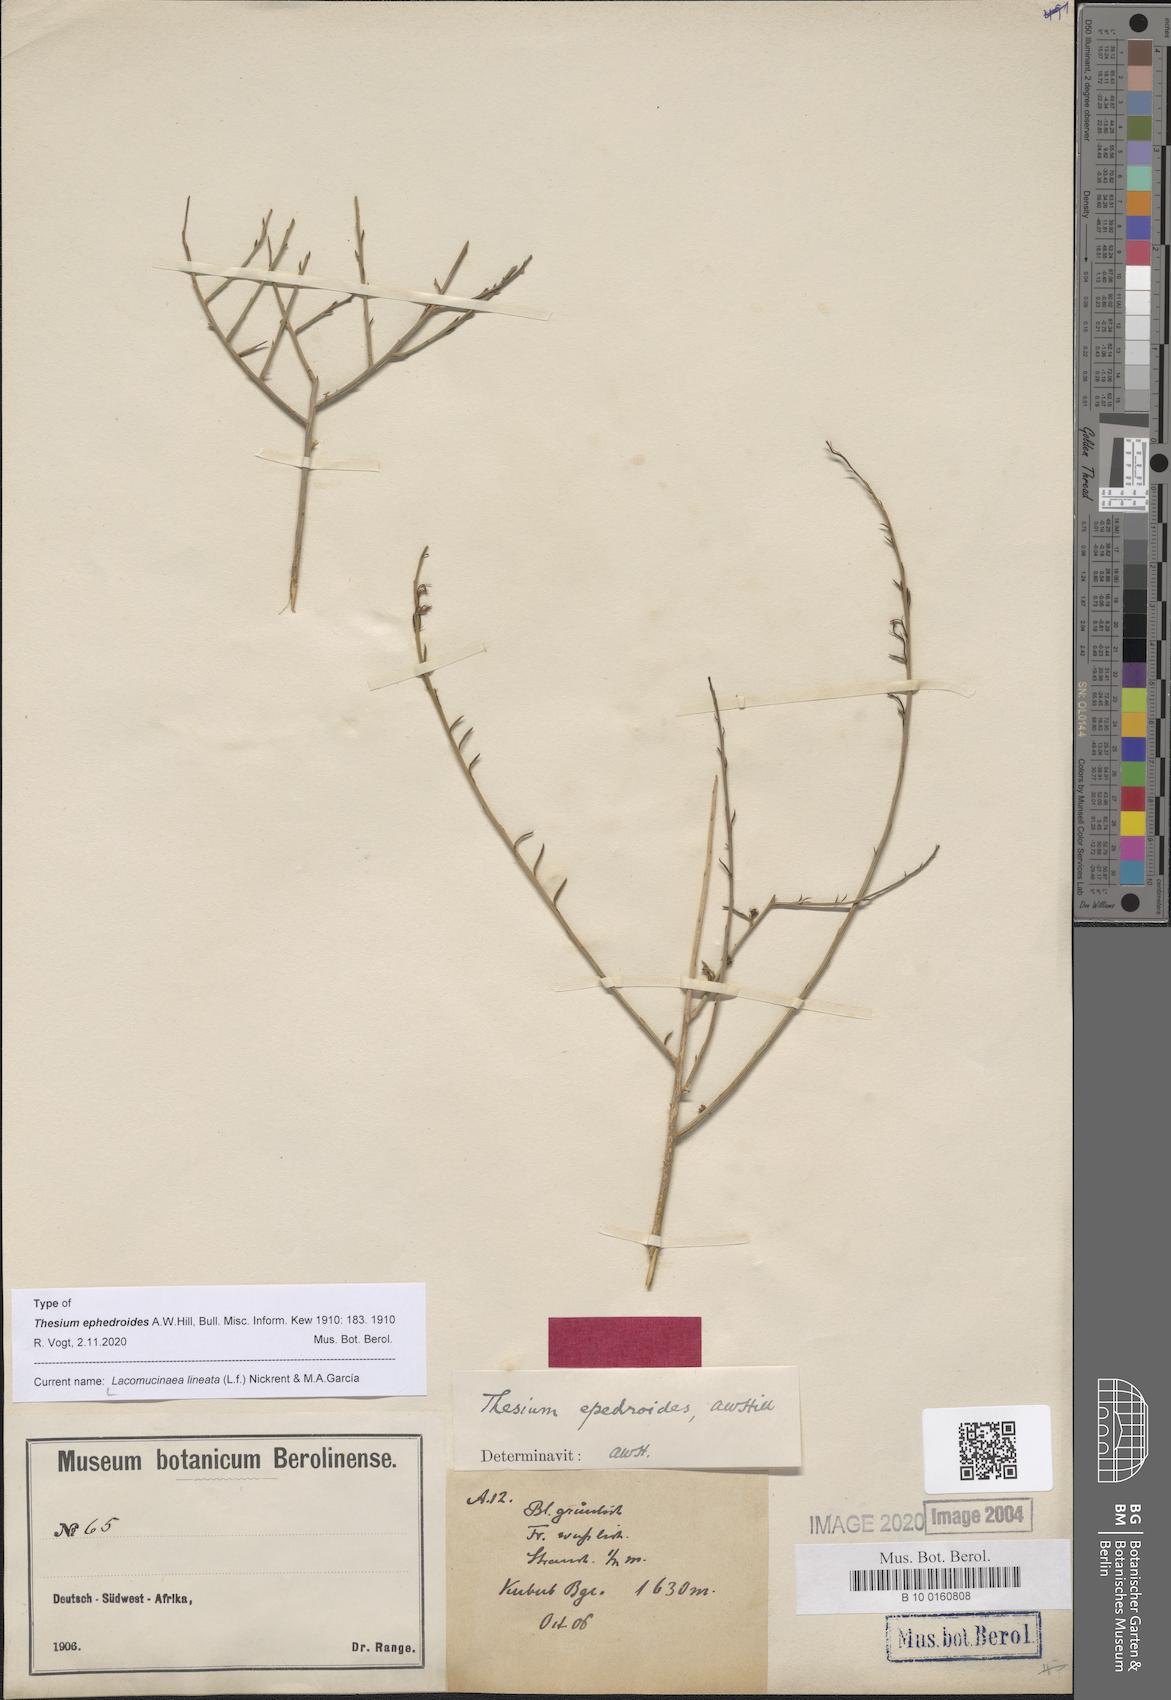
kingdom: Plantae
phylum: Tracheophyta
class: Magnoliopsida
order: Santalales
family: Thesiaceae
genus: Lacomucinaea
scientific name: Lacomucinaea lineata
